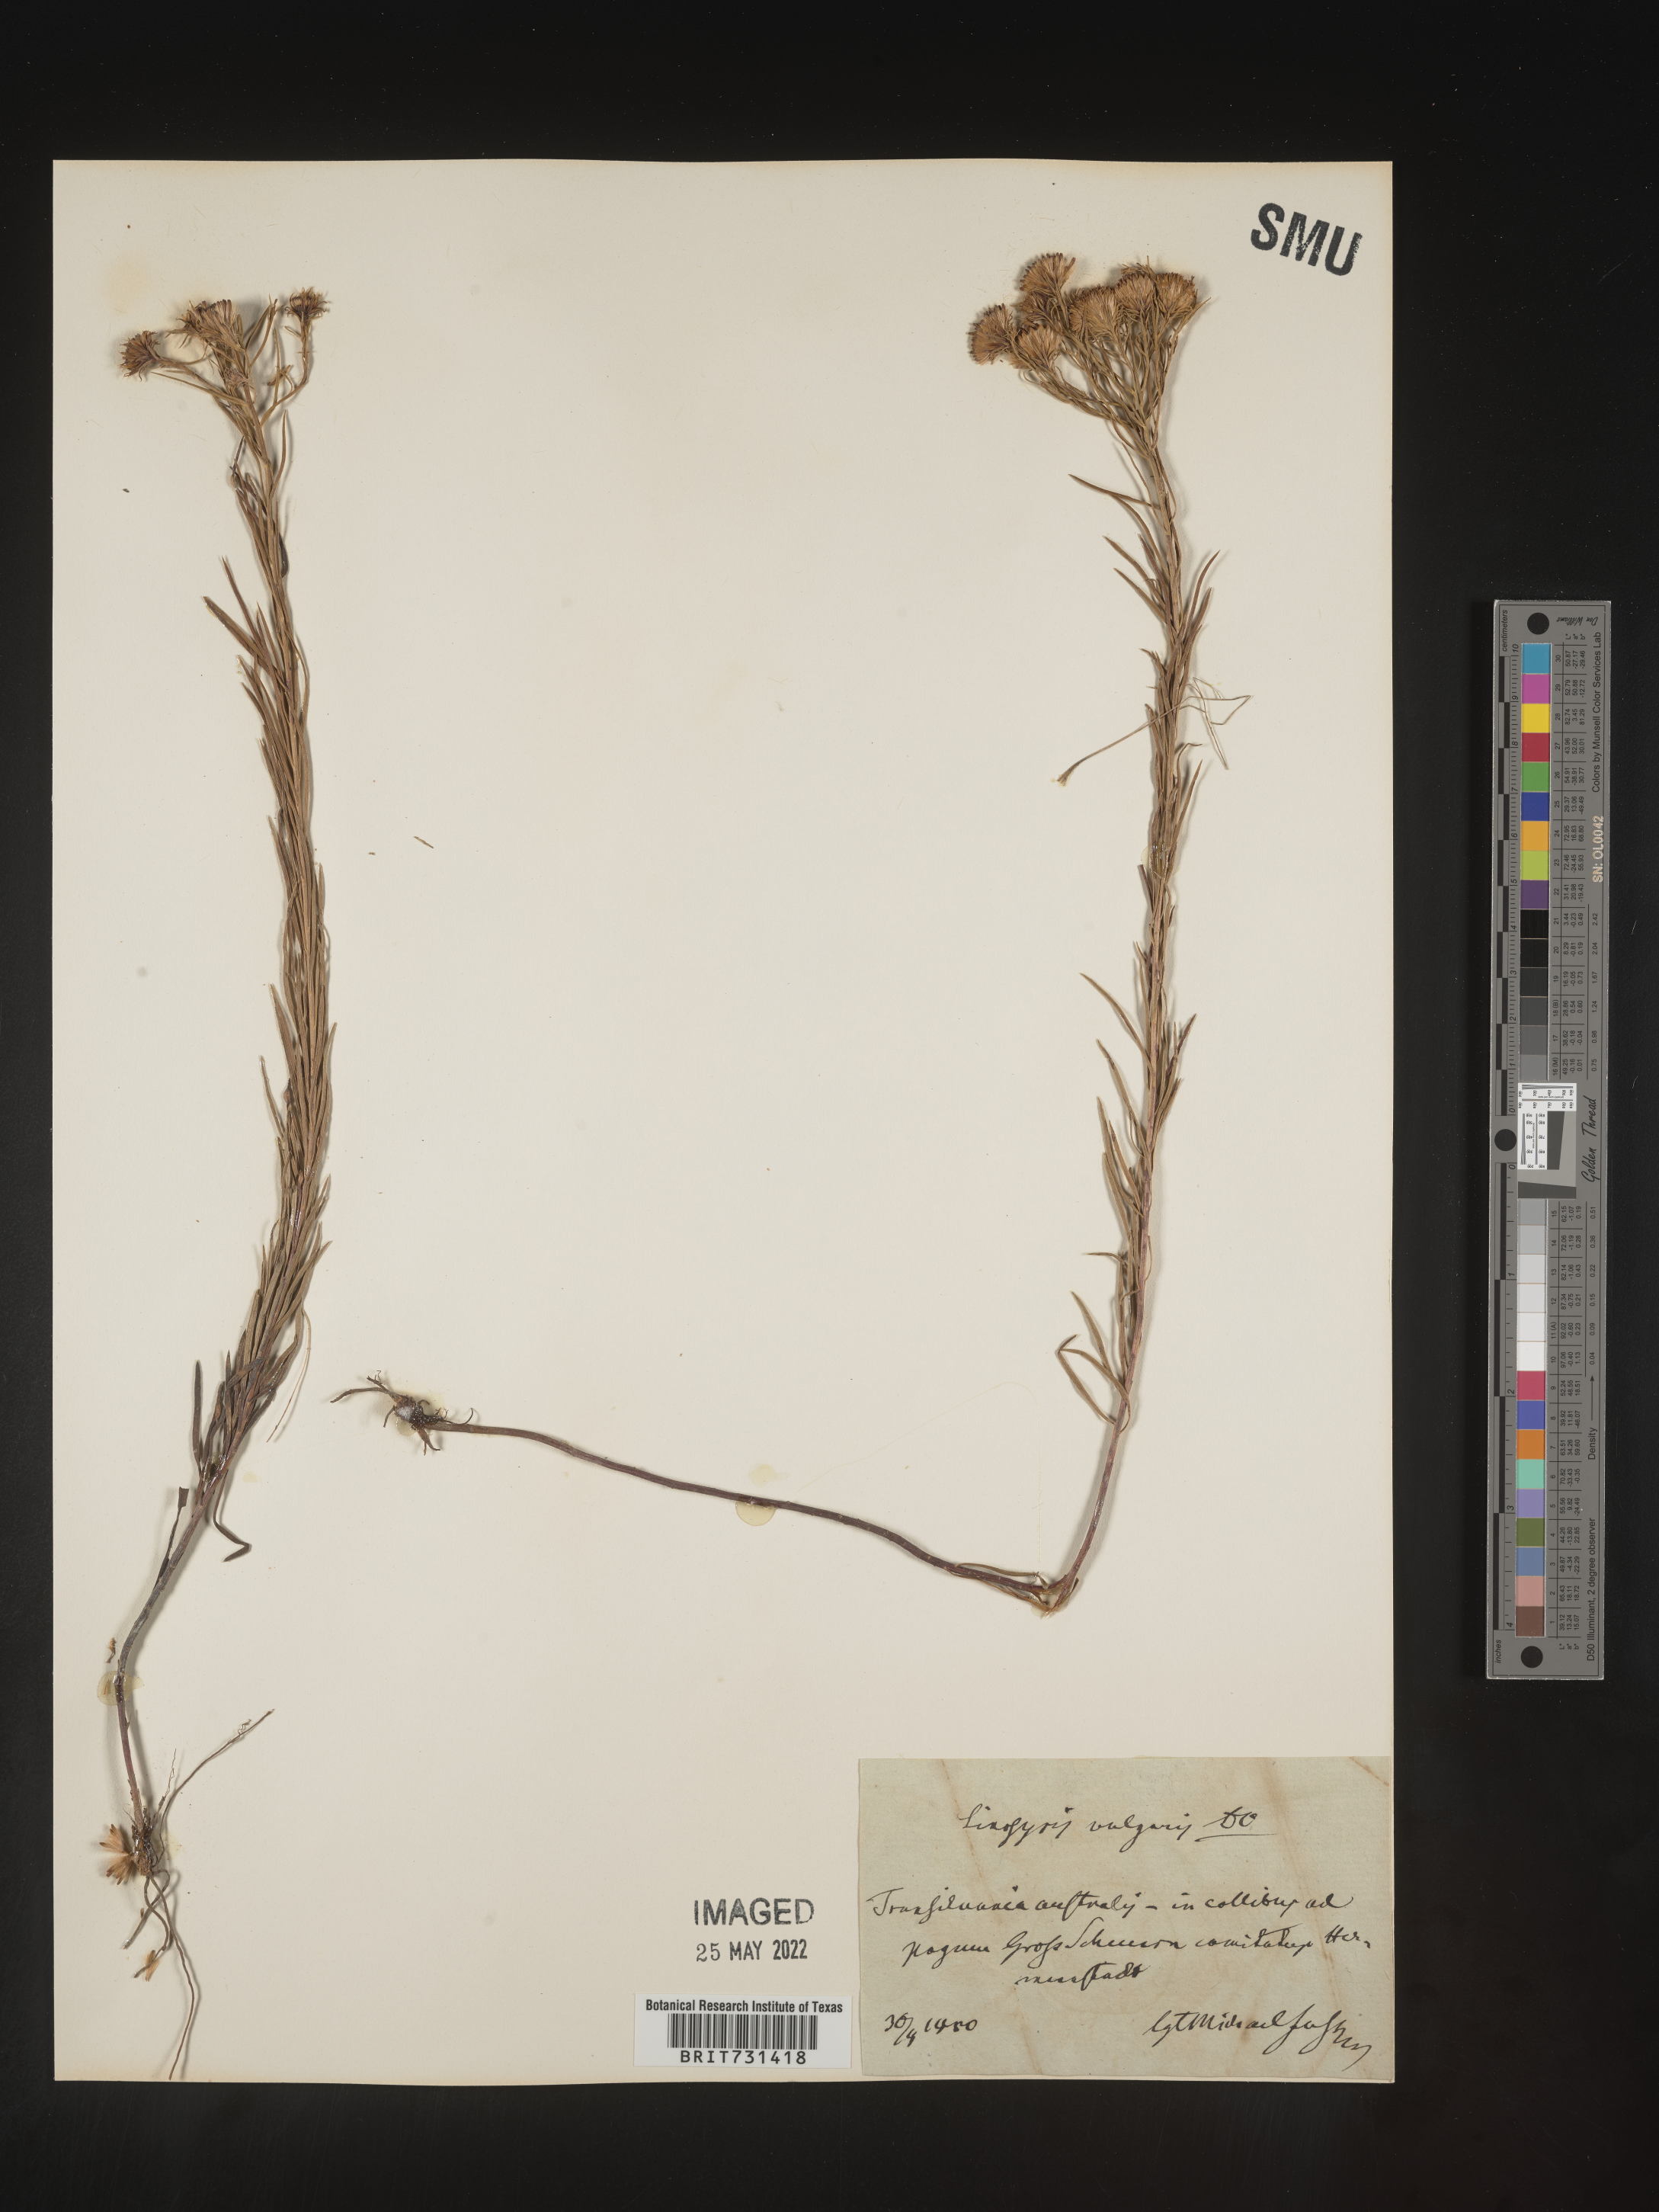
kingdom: Plantae
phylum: Tracheophyta
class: Magnoliopsida
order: Santalales
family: Santalaceae
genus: Linosyris
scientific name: Linosyris
